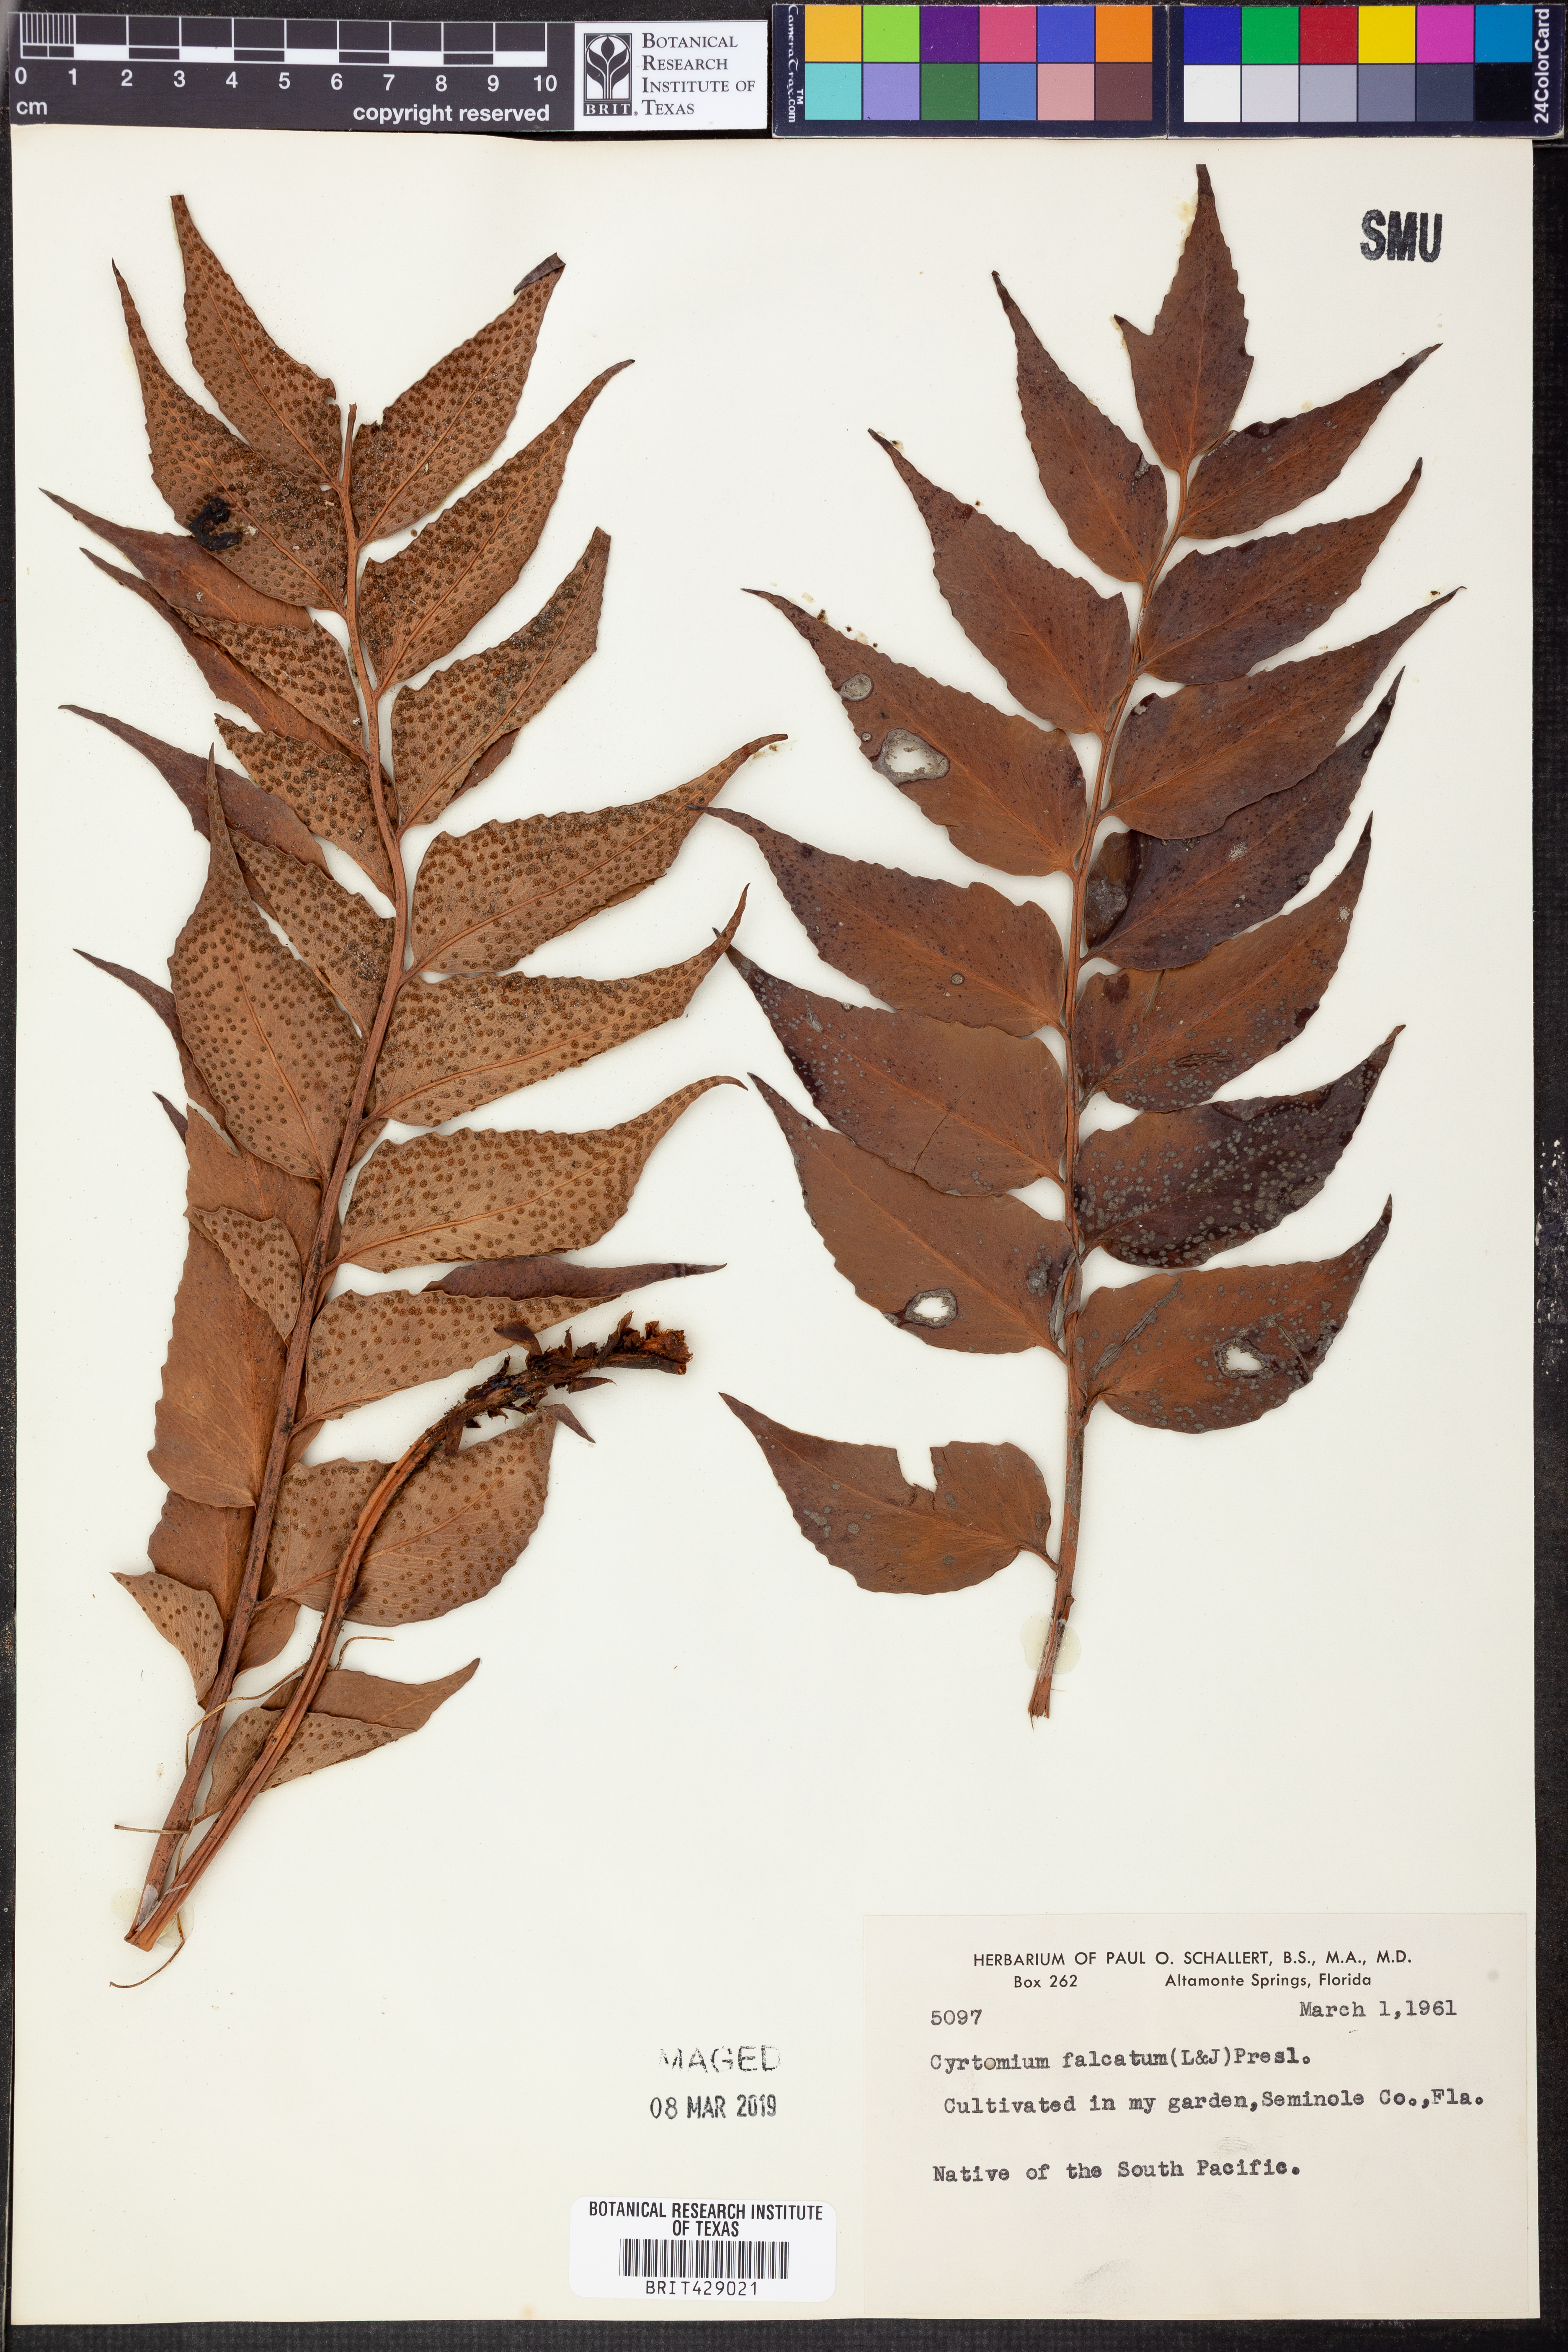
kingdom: Plantae
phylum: Tracheophyta
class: Polypodiopsida
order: Polypodiales
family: Dryopteridaceae
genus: Cyrtomium
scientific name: Cyrtomium falcatum
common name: House holly-fern
